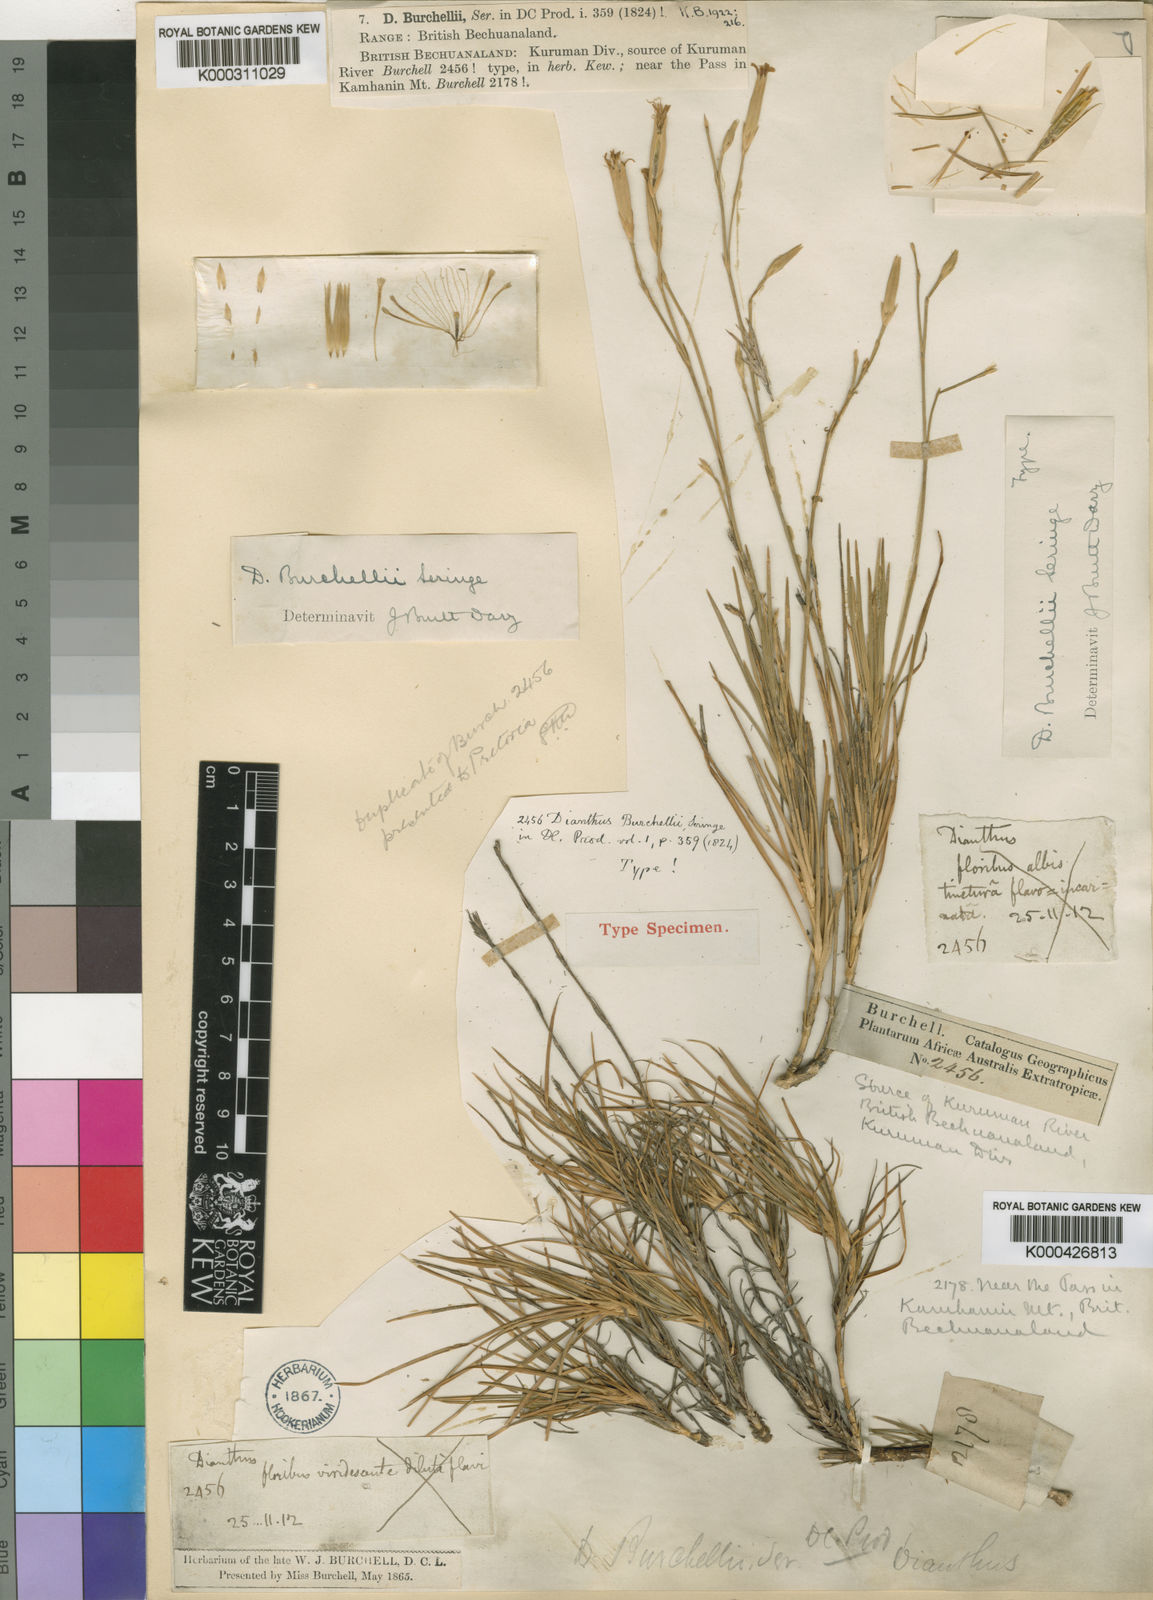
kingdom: Plantae
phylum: Tracheophyta
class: Magnoliopsida
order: Caryophyllales
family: Caryophyllaceae
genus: Dianthus
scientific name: Dianthus burchellii
